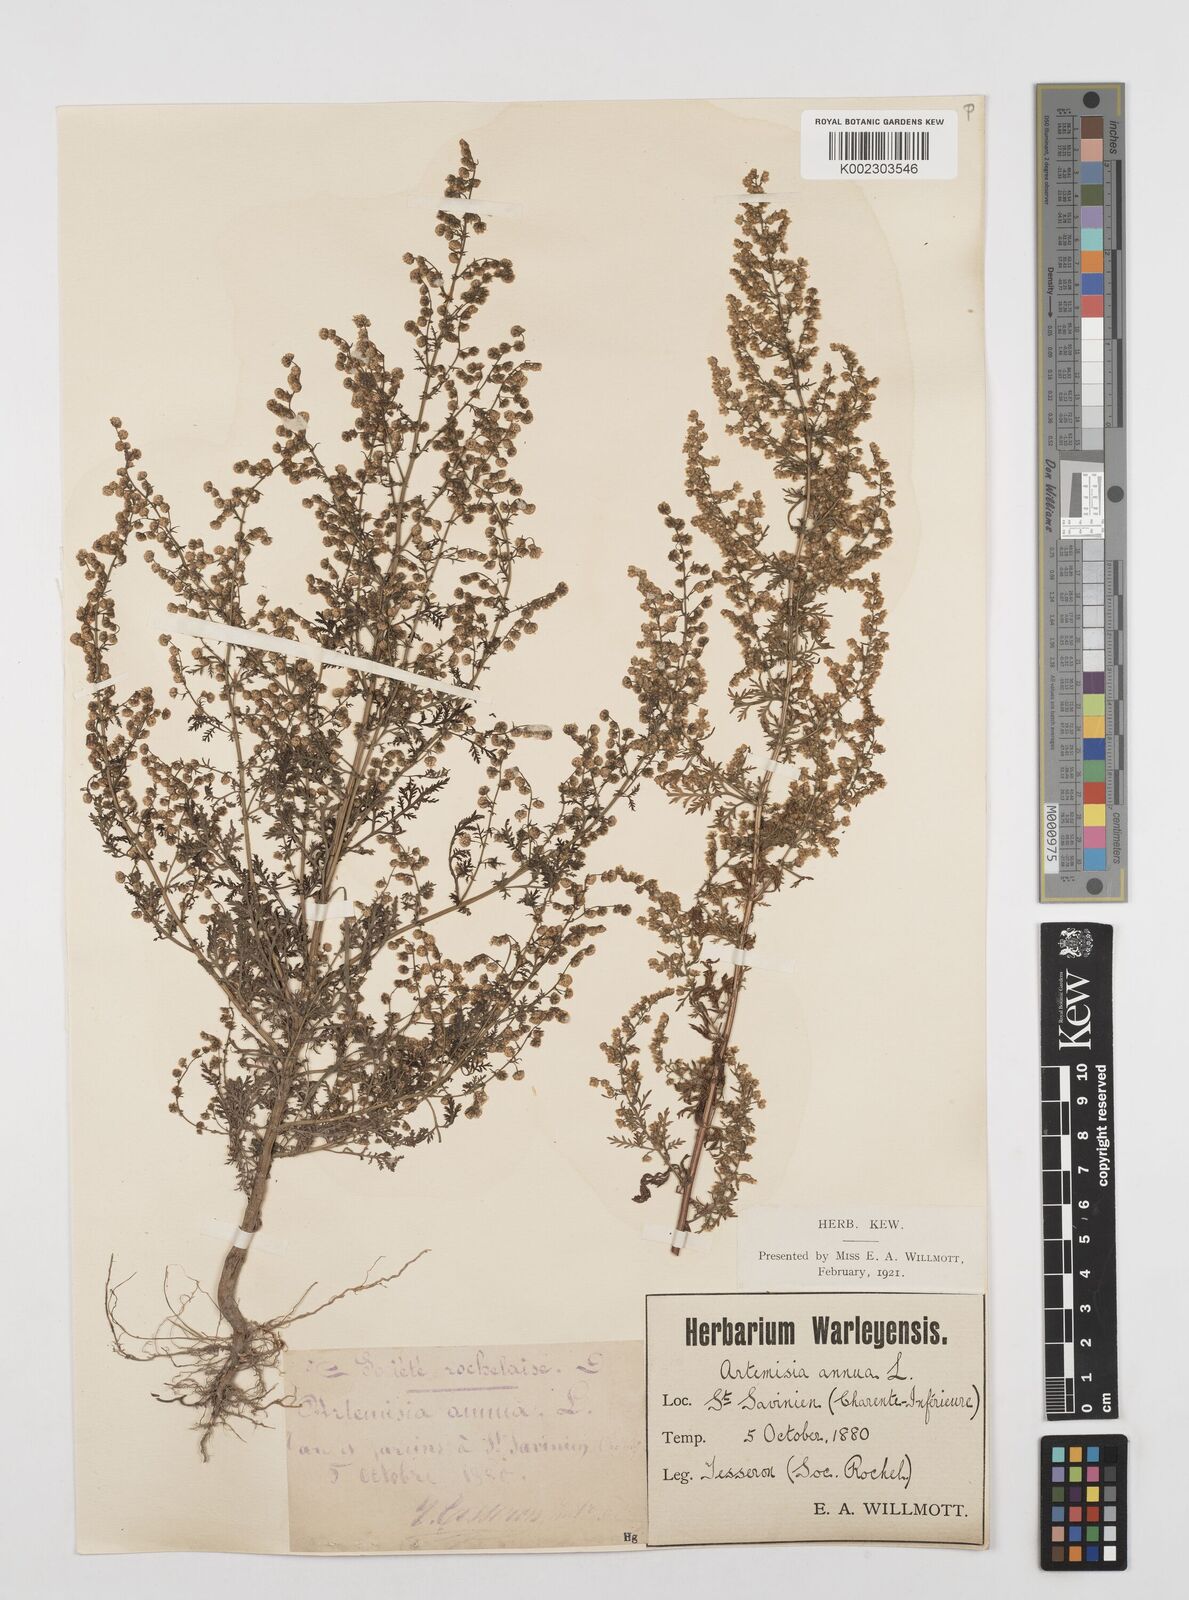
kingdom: Plantae
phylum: Tracheophyta
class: Magnoliopsida
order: Asterales
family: Asteraceae
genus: Artemisia
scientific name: Artemisia annua
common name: Sweet sagewort
